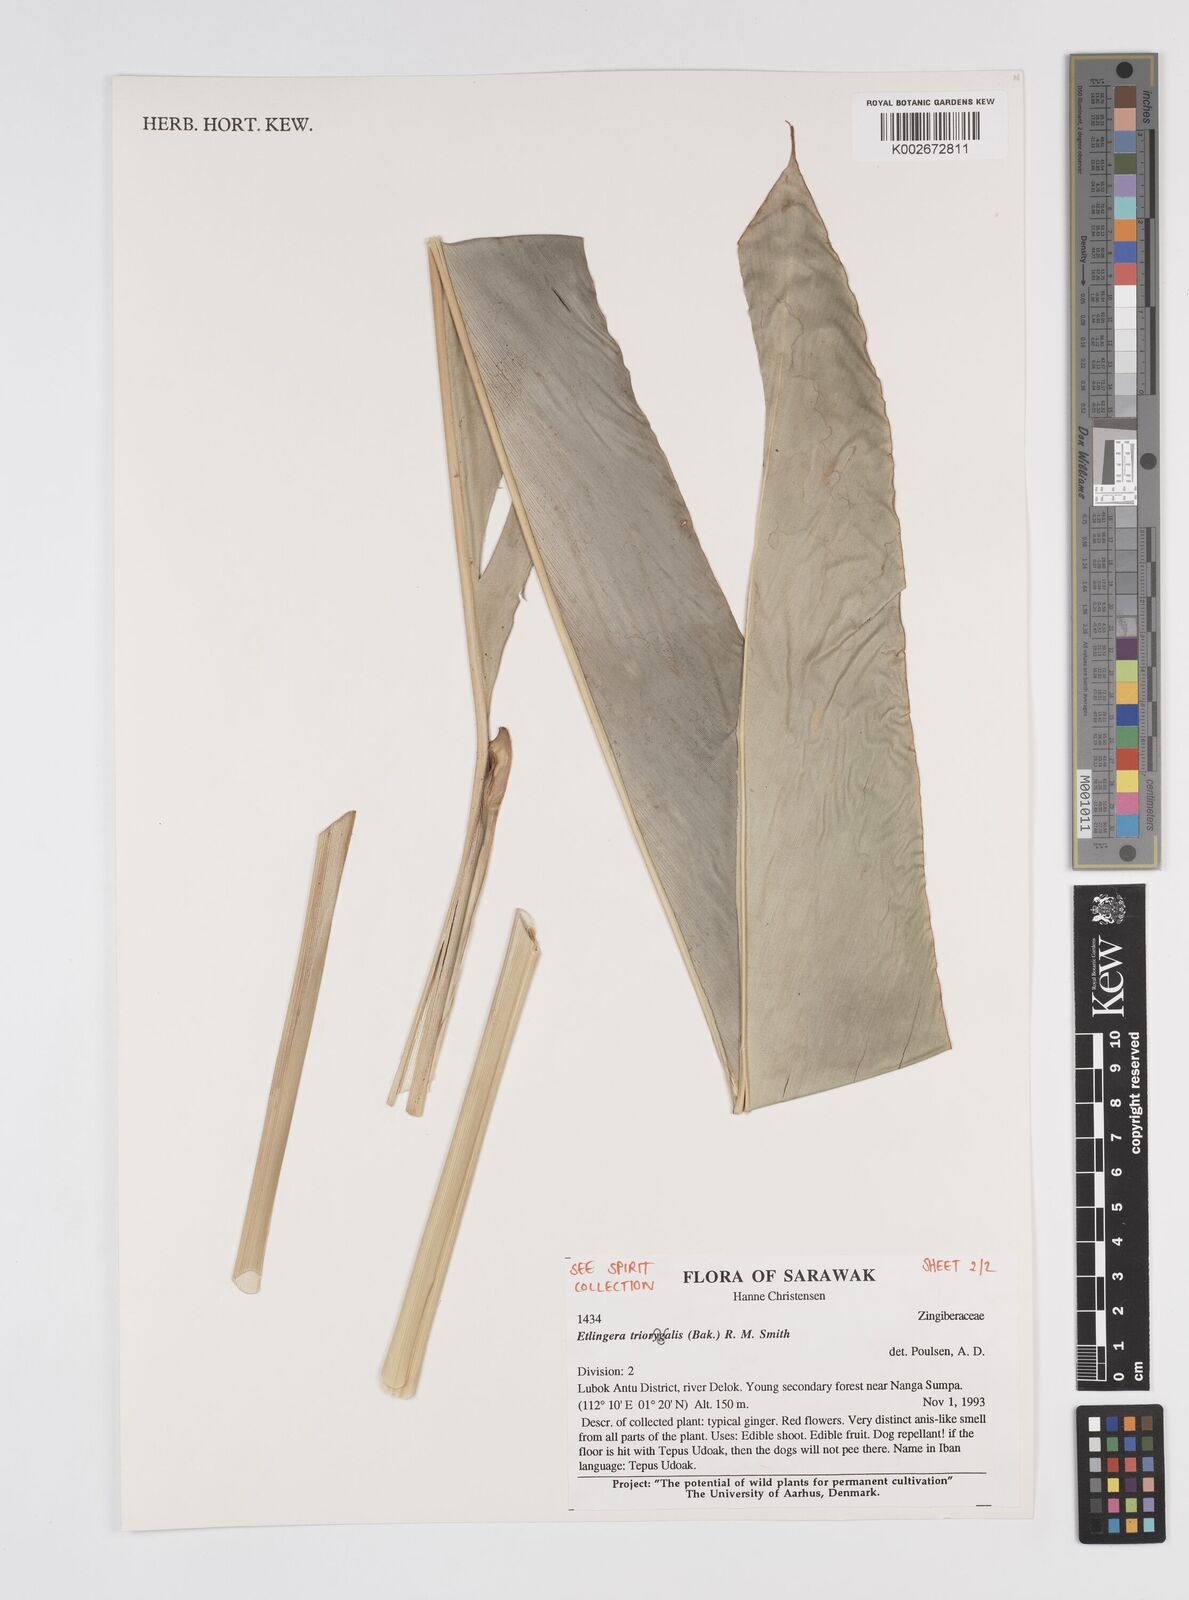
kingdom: Plantae
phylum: Tracheophyta
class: Liliopsida
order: Zingiberales
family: Zingiberaceae
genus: Etlingera
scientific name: Etlingera triorgyalis
